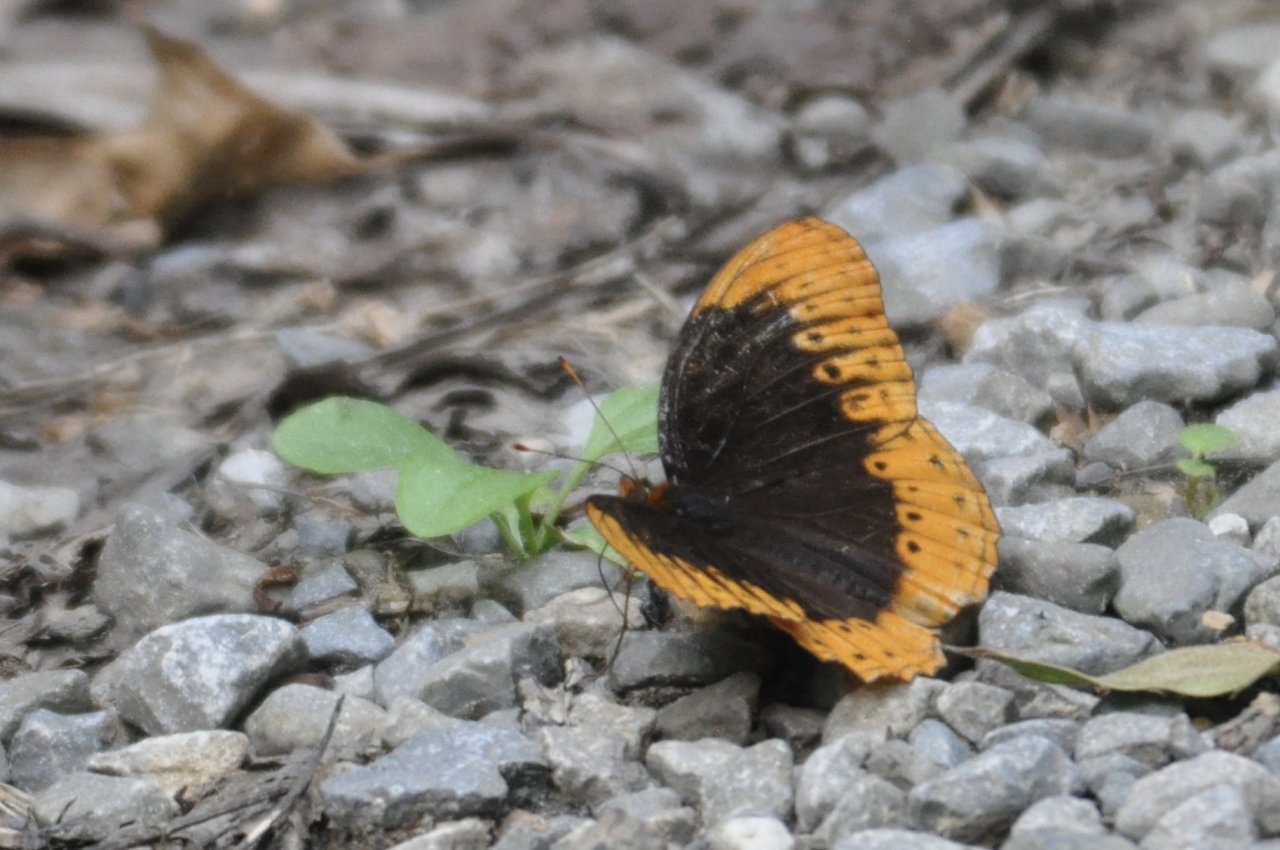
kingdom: Animalia
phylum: Arthropoda
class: Insecta
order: Lepidoptera
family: Nymphalidae
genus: Speyeria
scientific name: Speyeria diana
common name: Diana Fritillary
